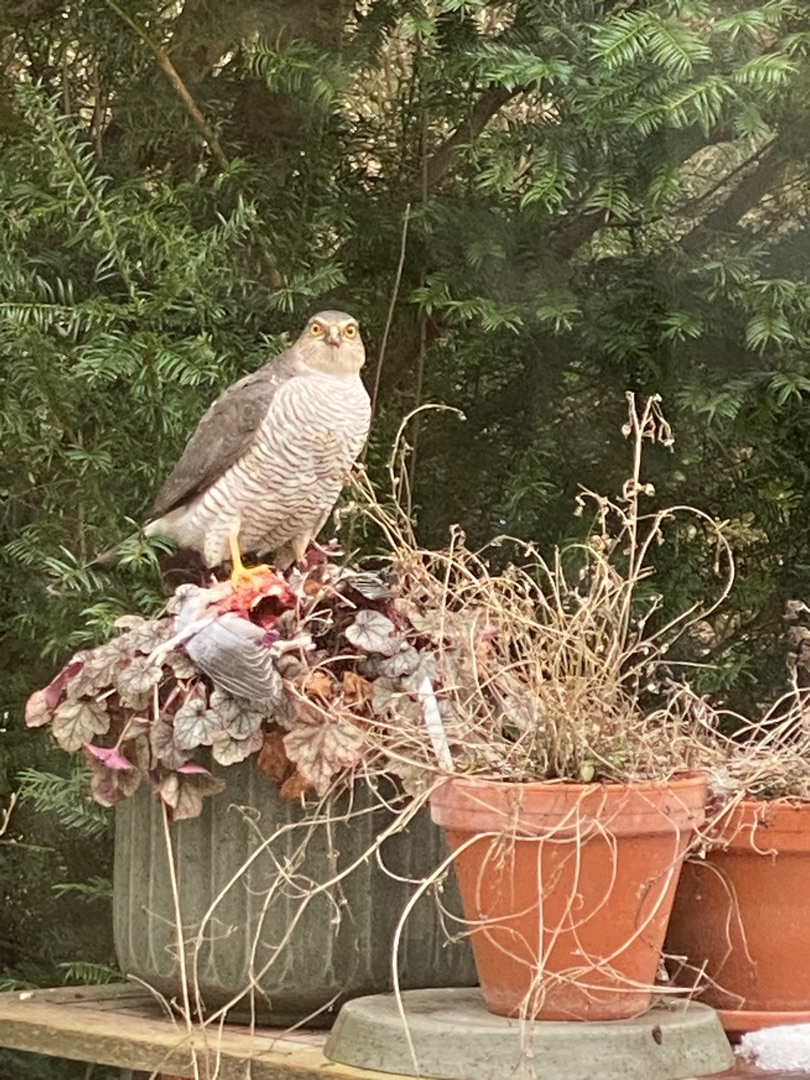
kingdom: Animalia
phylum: Chordata
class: Aves
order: Accipitriformes
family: Accipitridae
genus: Accipiter
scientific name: Accipiter nisus
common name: Spurvehøg
